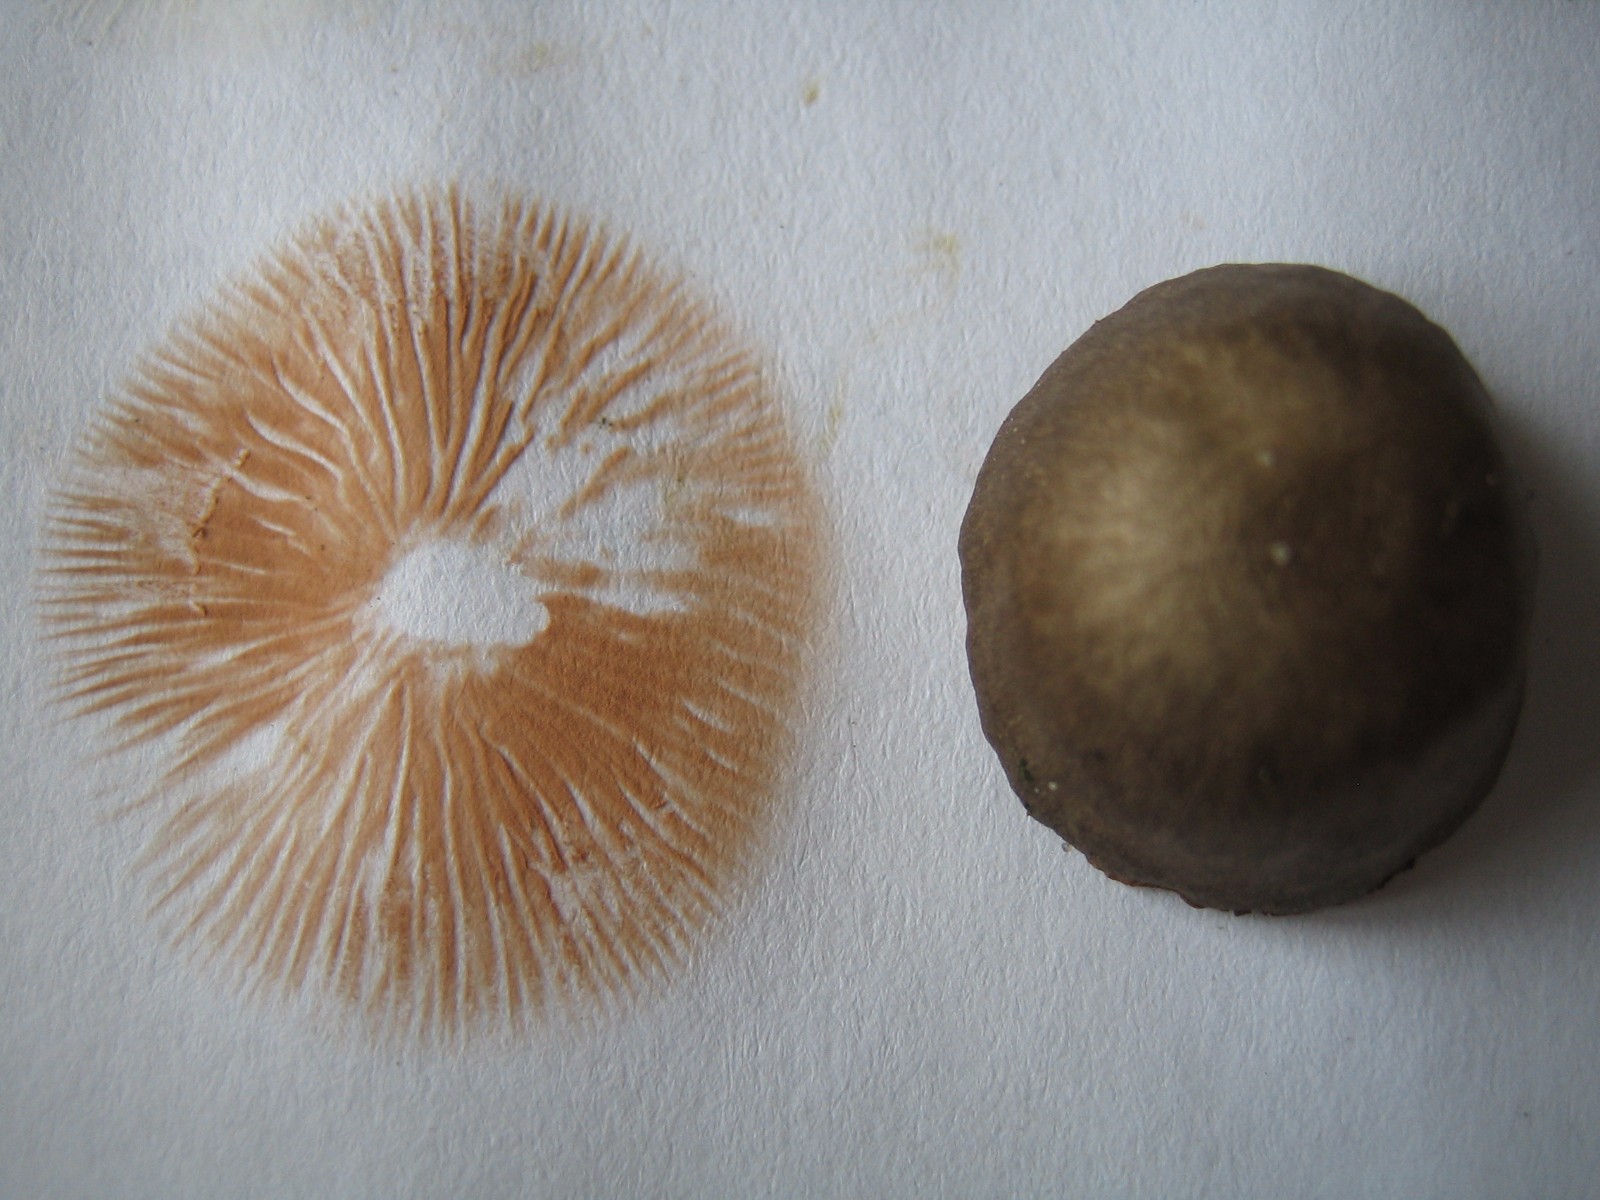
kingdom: Fungi
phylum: Basidiomycota
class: Agaricomycetes
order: Agaricales
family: Entolomataceae
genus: Entoloma
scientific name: Entoloma
